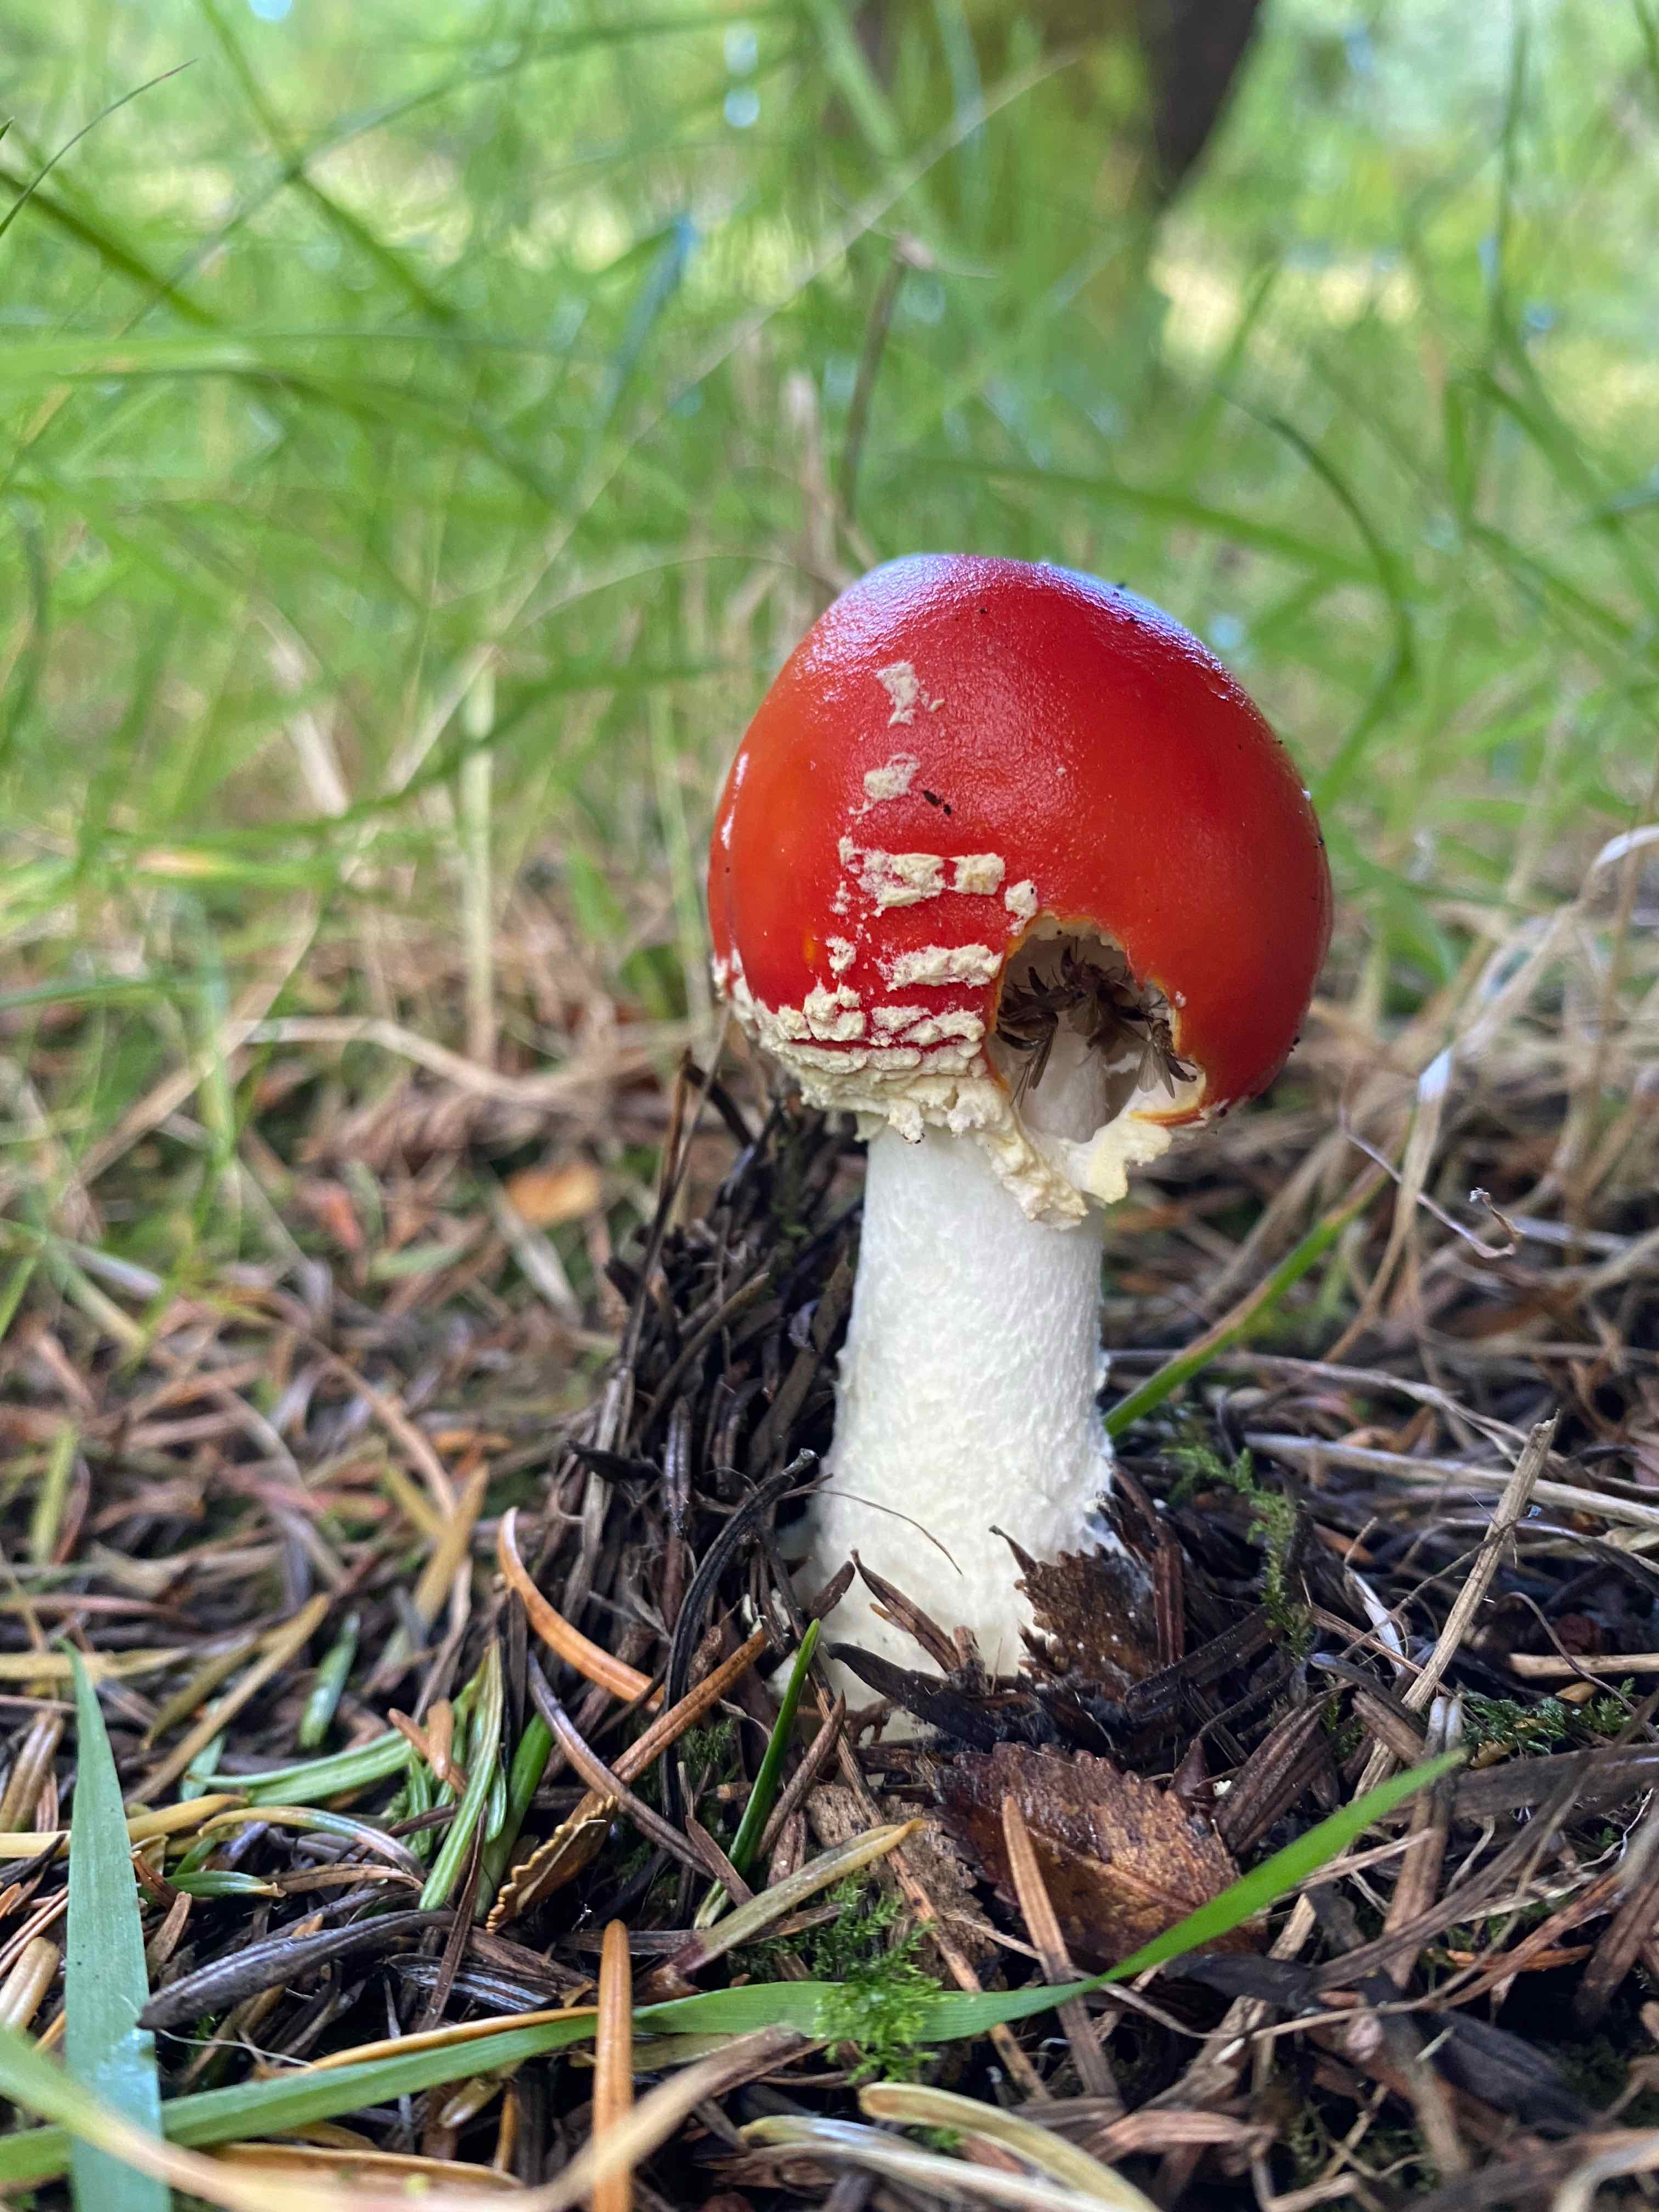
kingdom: Fungi
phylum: Basidiomycota
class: Agaricomycetes
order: Agaricales
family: Amanitaceae
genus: Amanita
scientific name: Amanita muscaria
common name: rød fluesvamp
